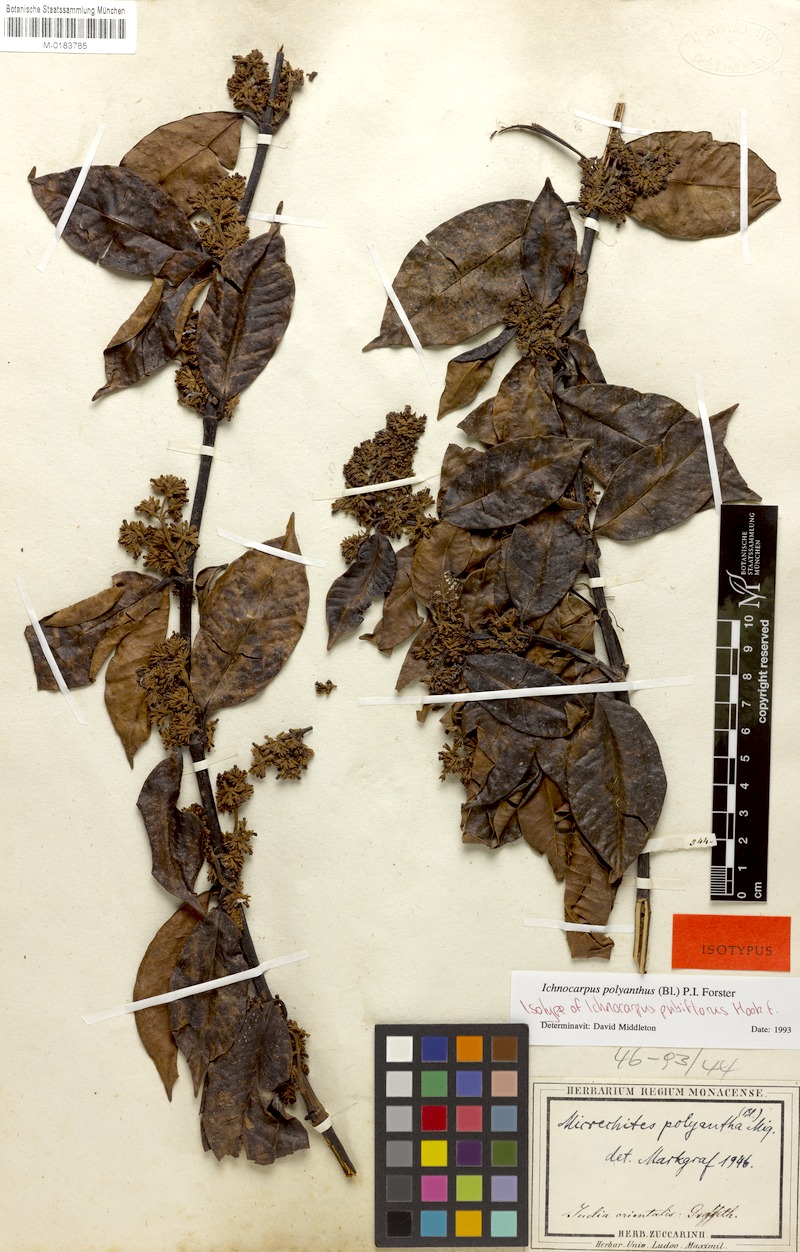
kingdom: Plantae
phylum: Tracheophyta
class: Magnoliopsida
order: Gentianales
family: Apocynaceae
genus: Micrechites
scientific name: Micrechites polyantha
